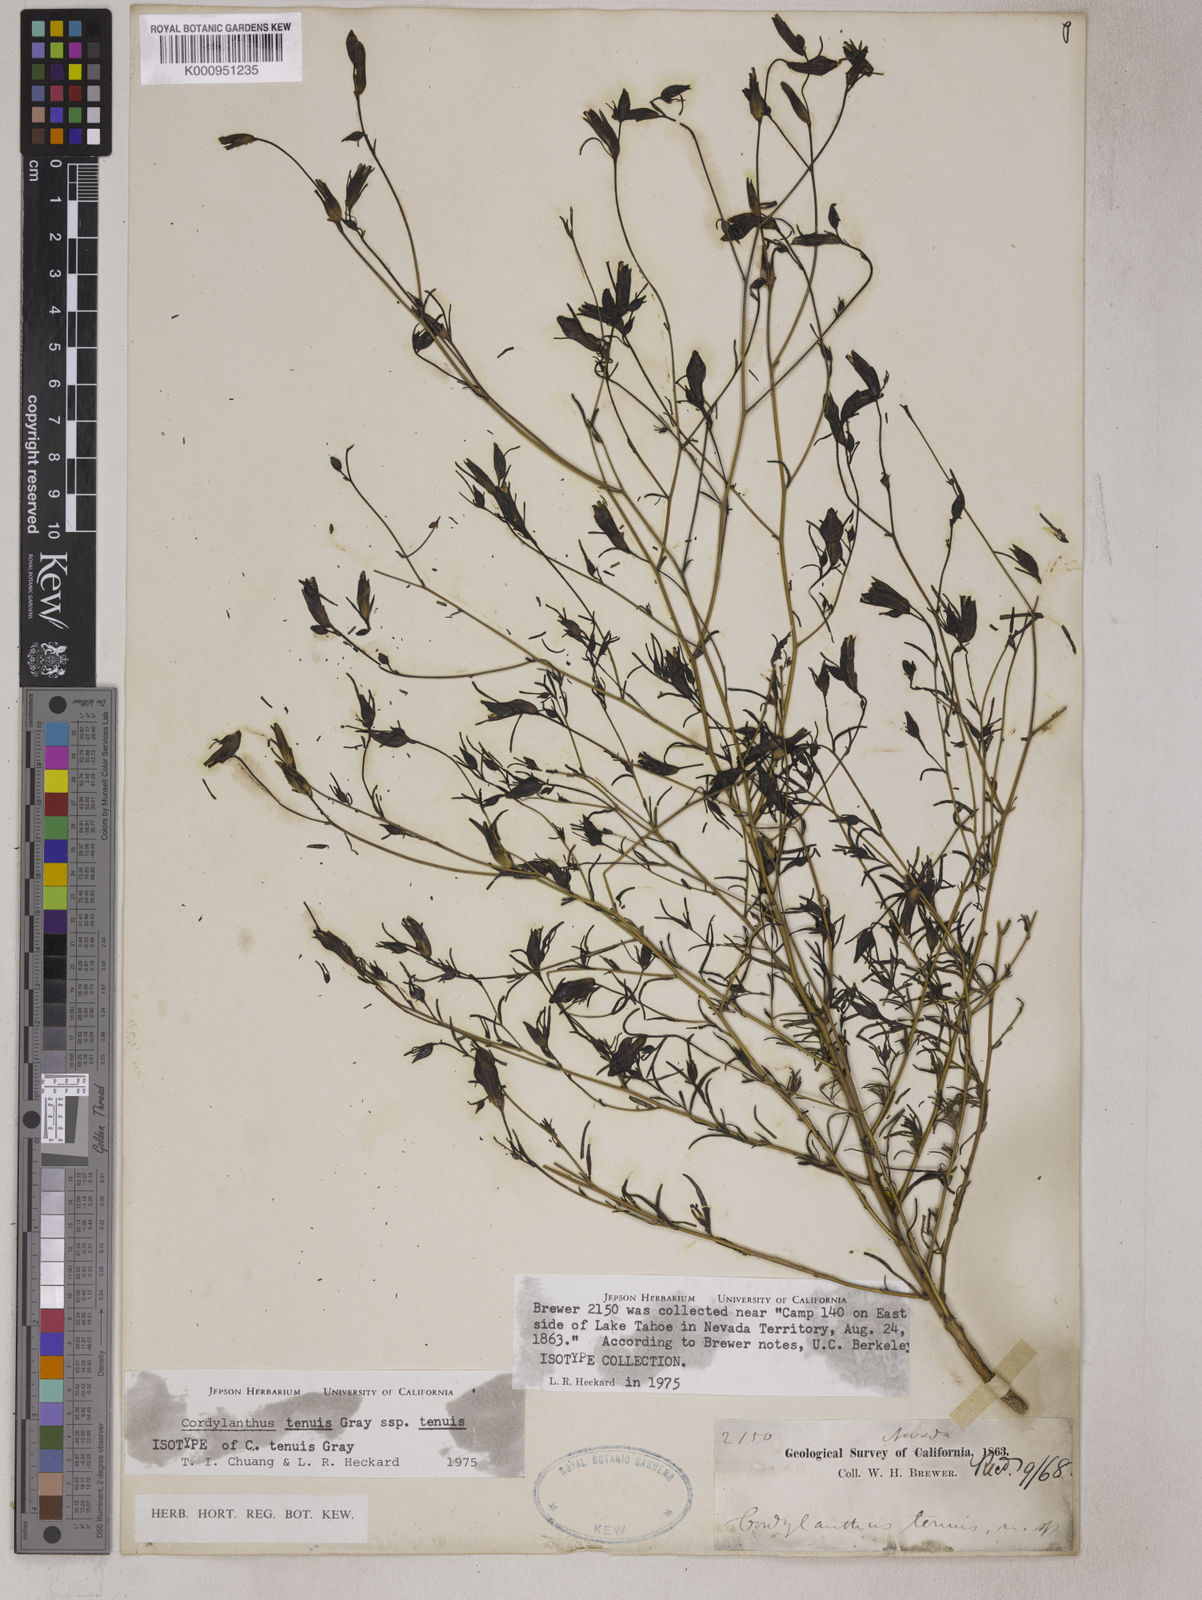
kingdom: Plantae
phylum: Tracheophyta
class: Magnoliopsida
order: Lamiales
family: Orobanchaceae
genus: Cordylanthus
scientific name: Cordylanthus tenuis
